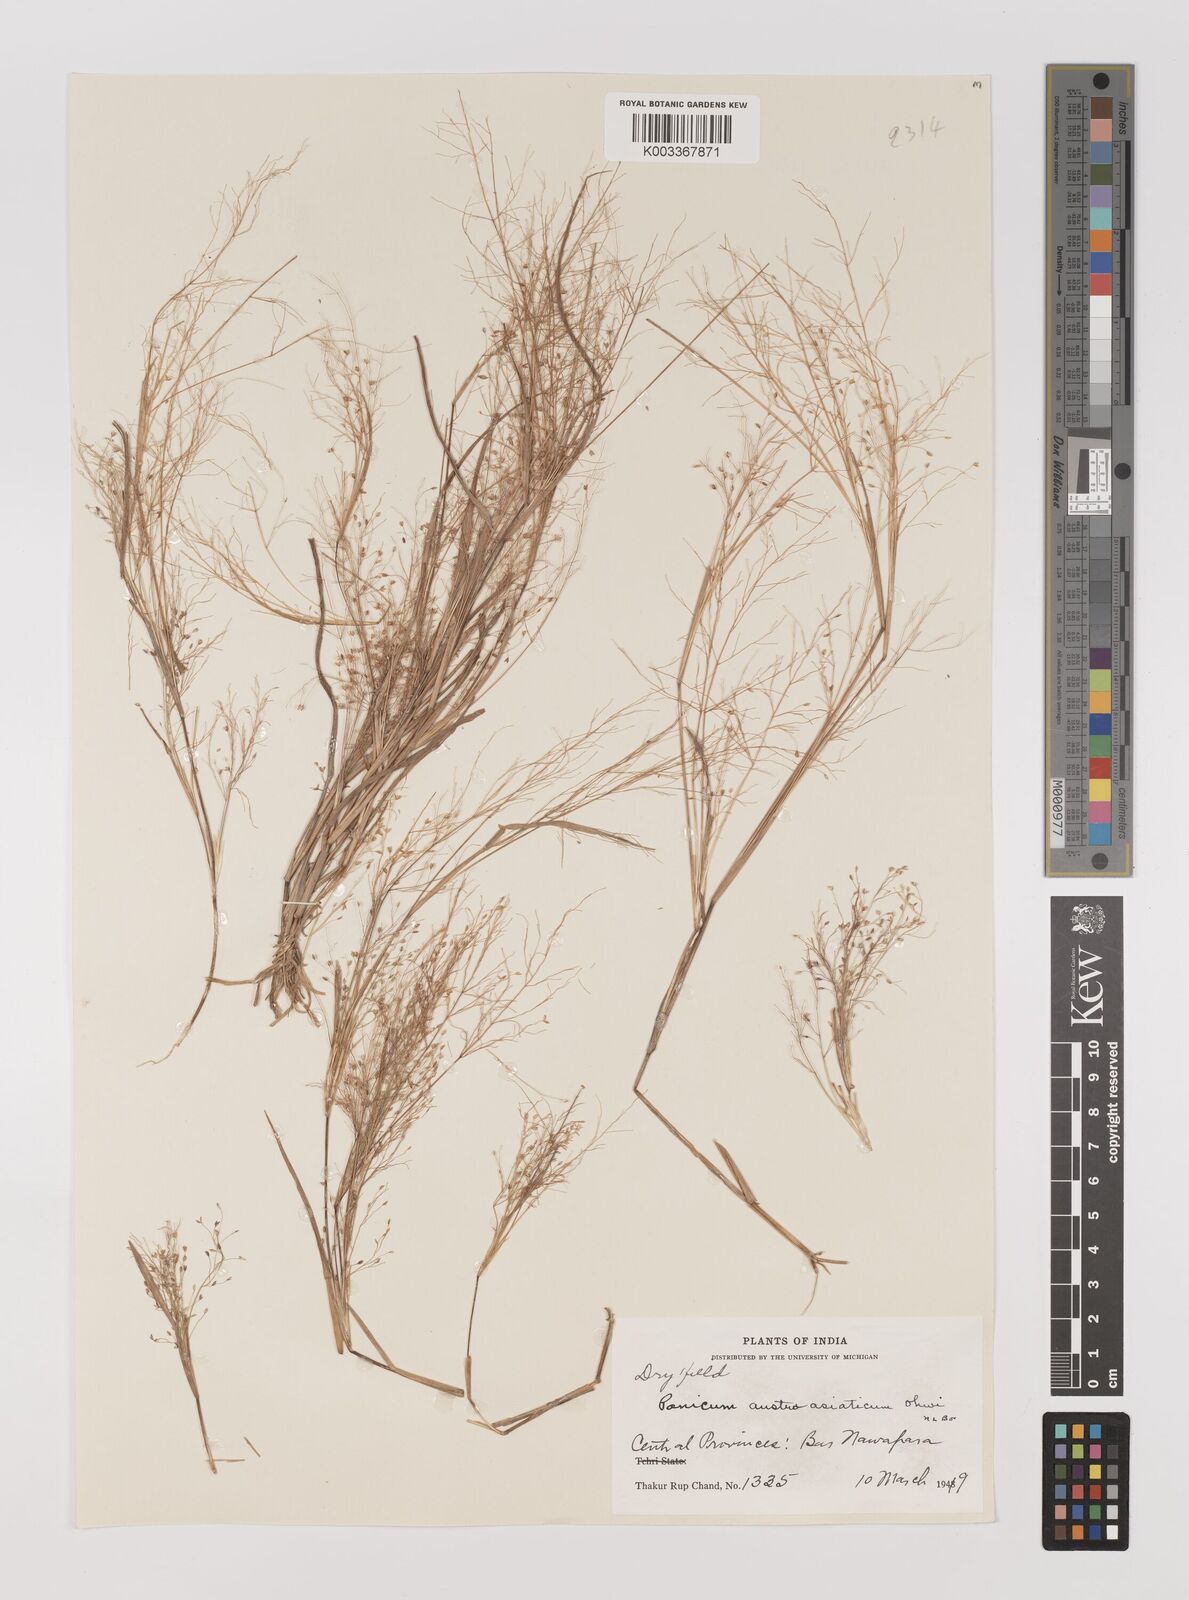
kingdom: Plantae
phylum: Tracheophyta
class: Liliopsida
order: Poales
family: Poaceae
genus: Panicum
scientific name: Panicum humile
